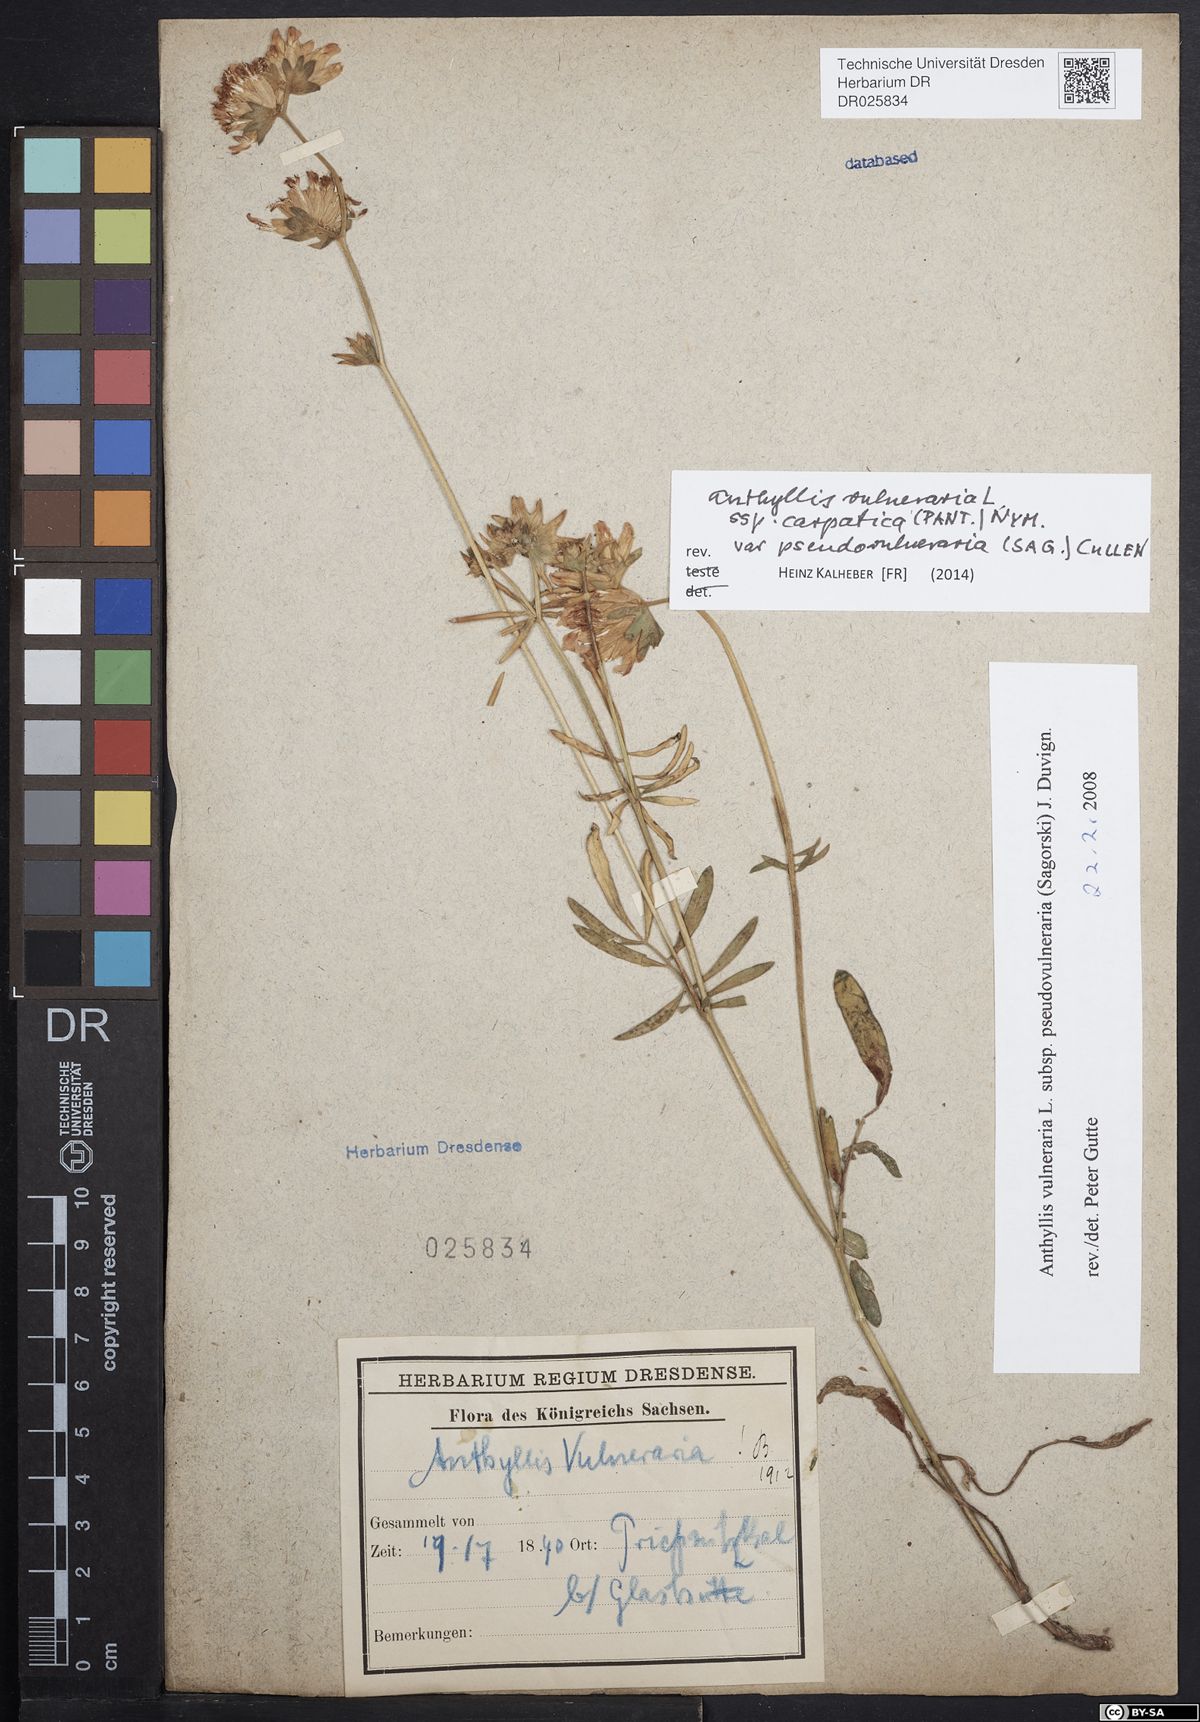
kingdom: Plantae
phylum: Tracheophyta
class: Magnoliopsida
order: Fabales
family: Fabaceae
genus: Anthyllis
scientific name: Anthyllis vulneraria
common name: Kidney vetch
